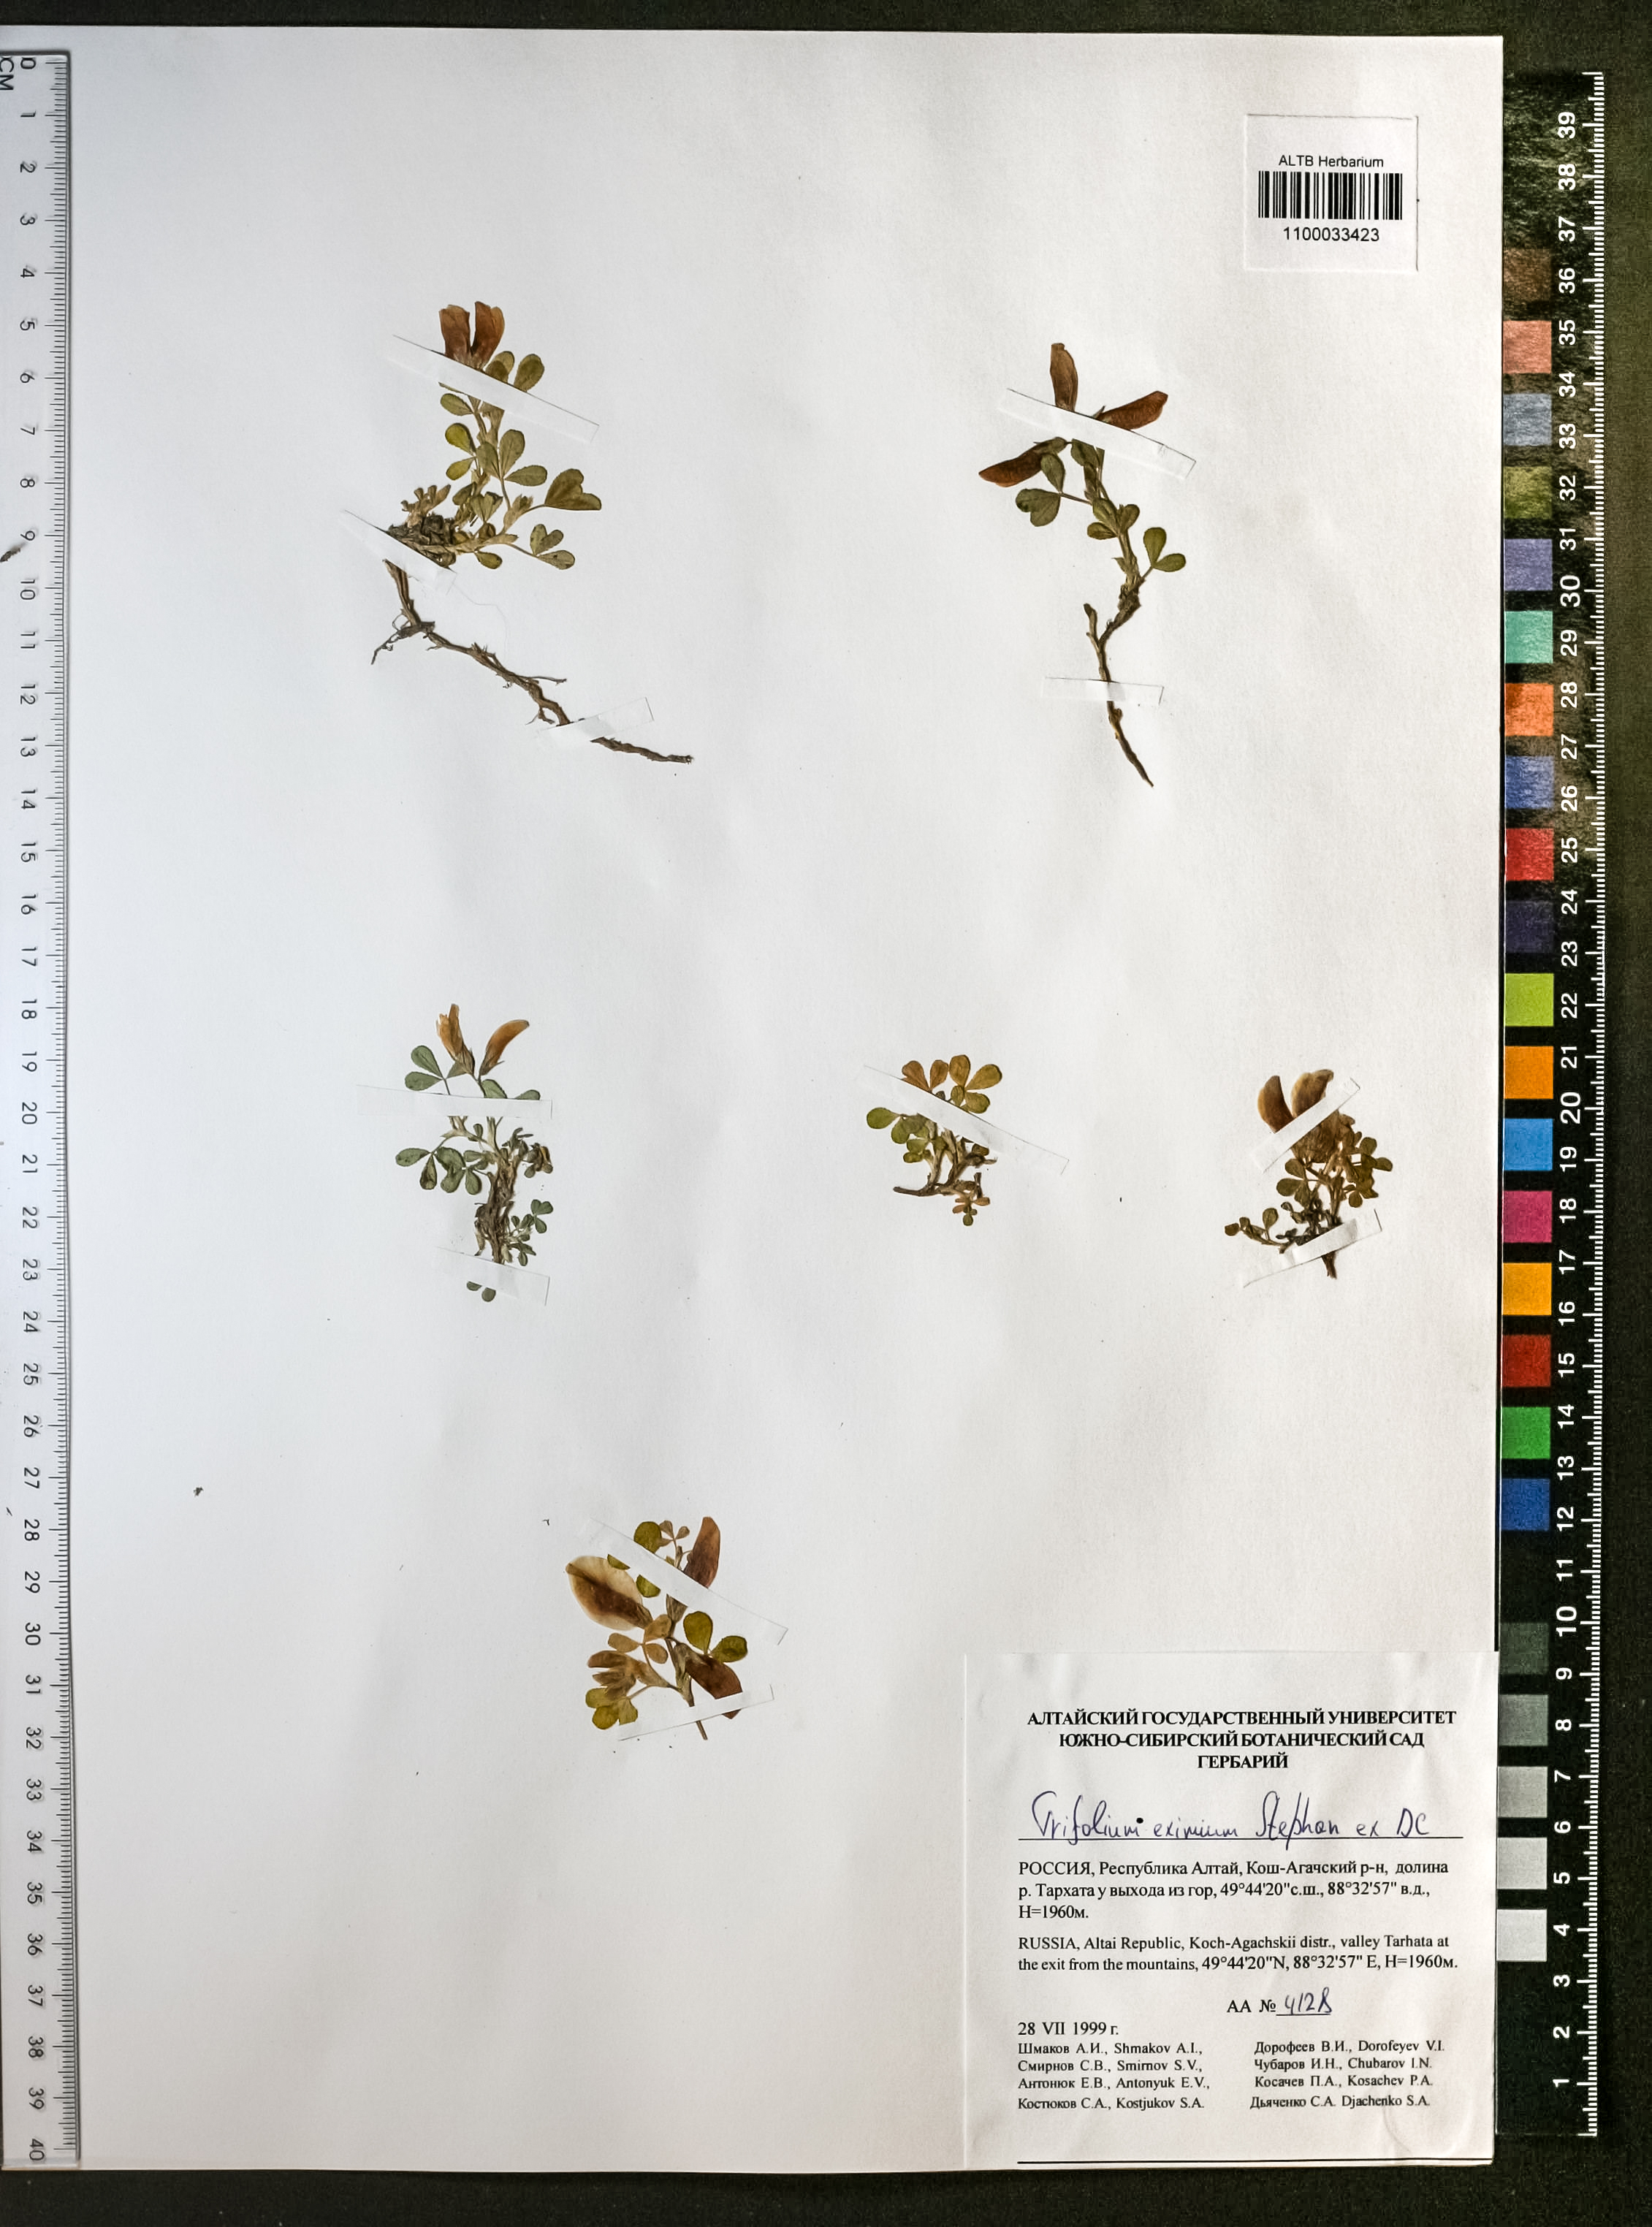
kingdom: Plantae
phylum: Tracheophyta
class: Magnoliopsida
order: Fabales
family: Fabaceae
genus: Trifolium
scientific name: Trifolium eximium
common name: Excellent clover
